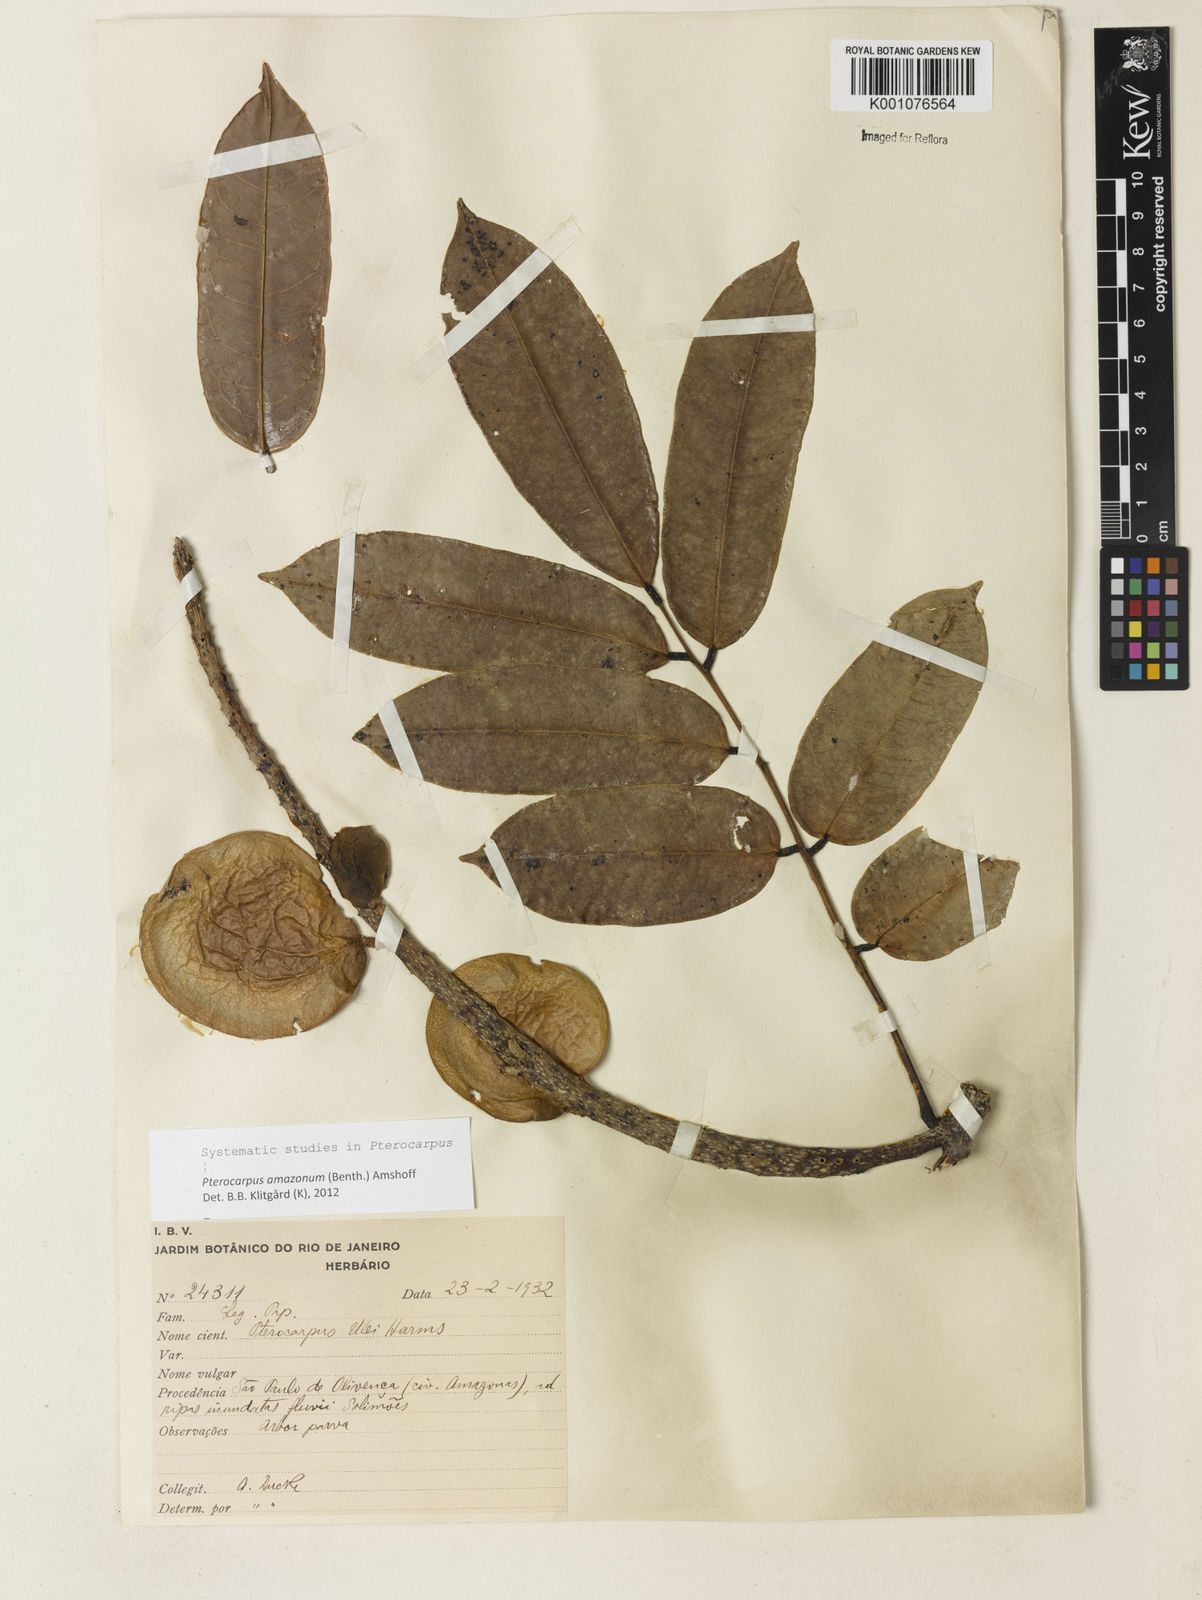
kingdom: Plantae
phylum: Tracheophyta
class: Magnoliopsida
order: Fabales
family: Fabaceae
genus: Pterocarpus
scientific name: Pterocarpus amazonum
